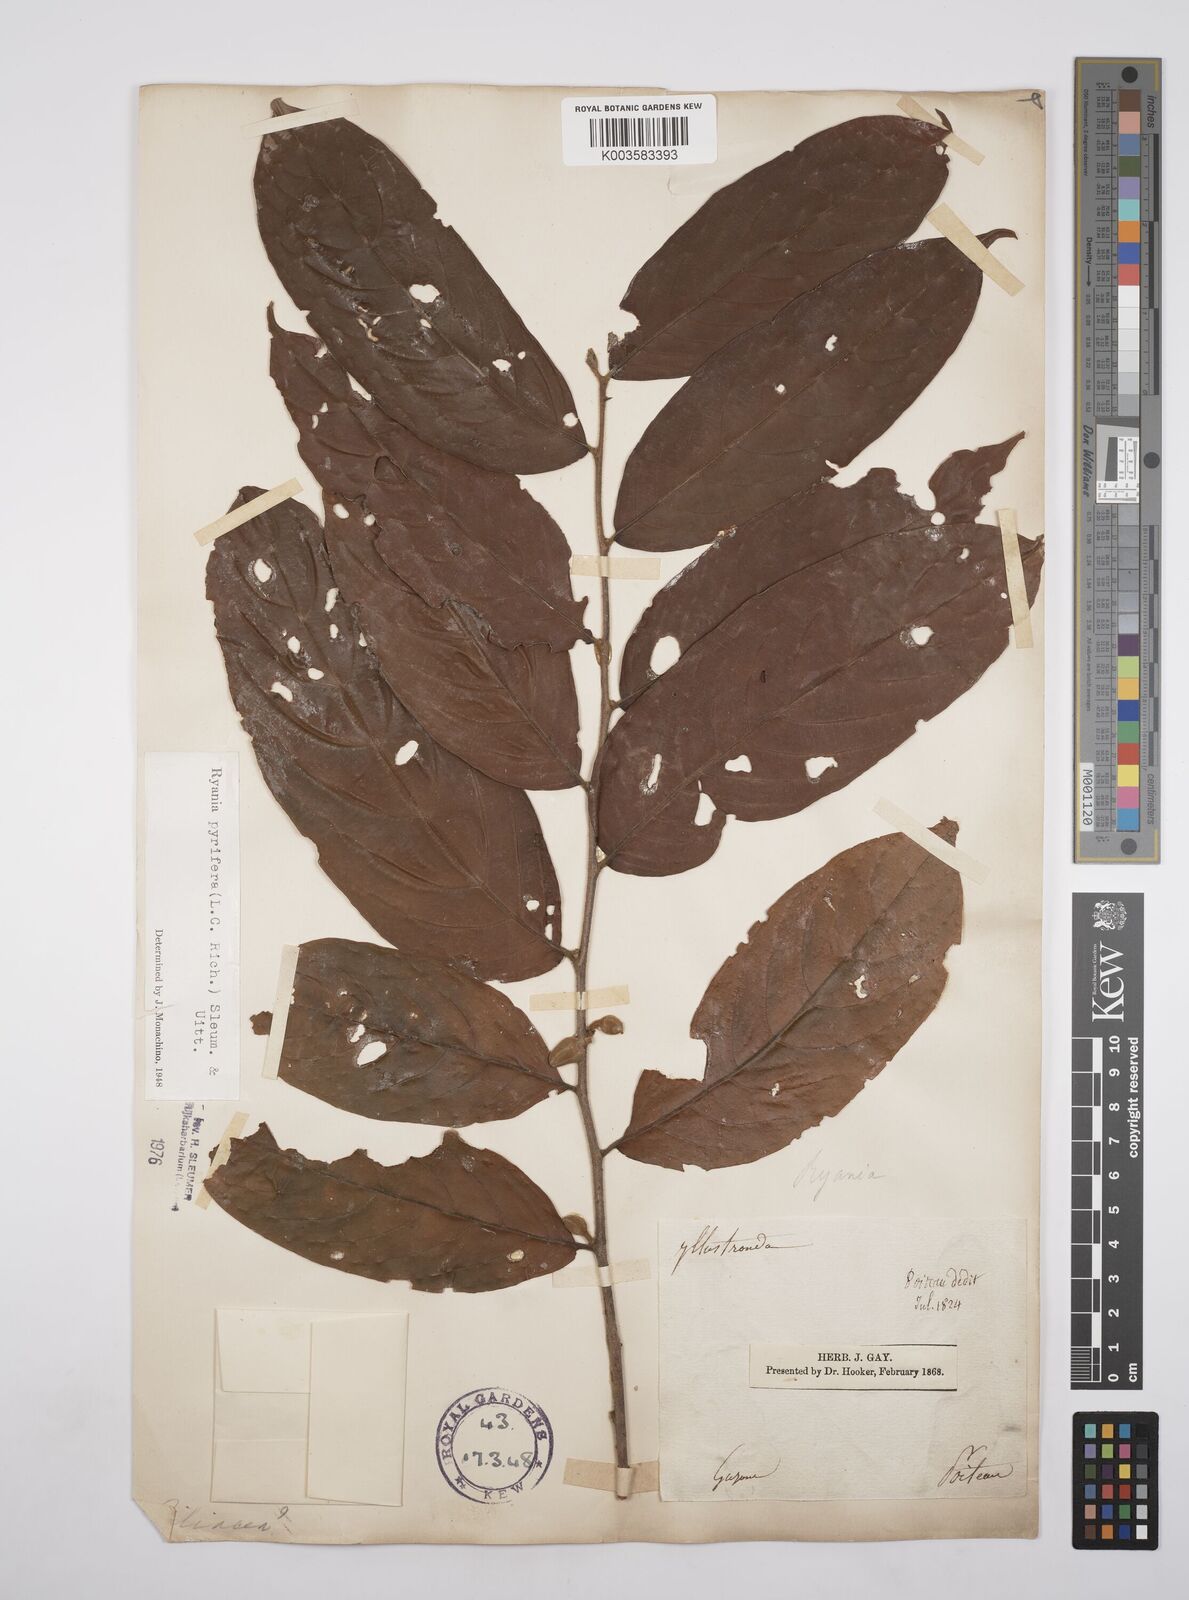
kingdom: Plantae
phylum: Tracheophyta
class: Magnoliopsida
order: Malpighiales
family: Salicaceae
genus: Ryania
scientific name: Ryania pyrifera
